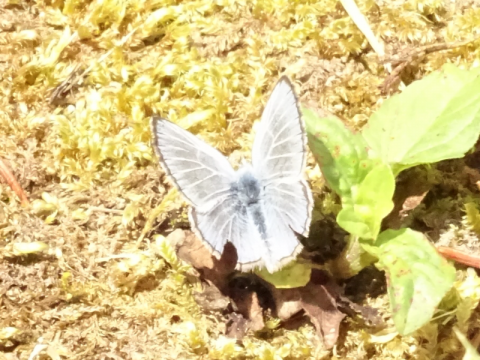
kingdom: Animalia
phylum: Arthropoda
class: Insecta
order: Lepidoptera
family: Lycaenidae
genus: Glaucopsyche
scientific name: Glaucopsyche lygdamus
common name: Silvery Blue
